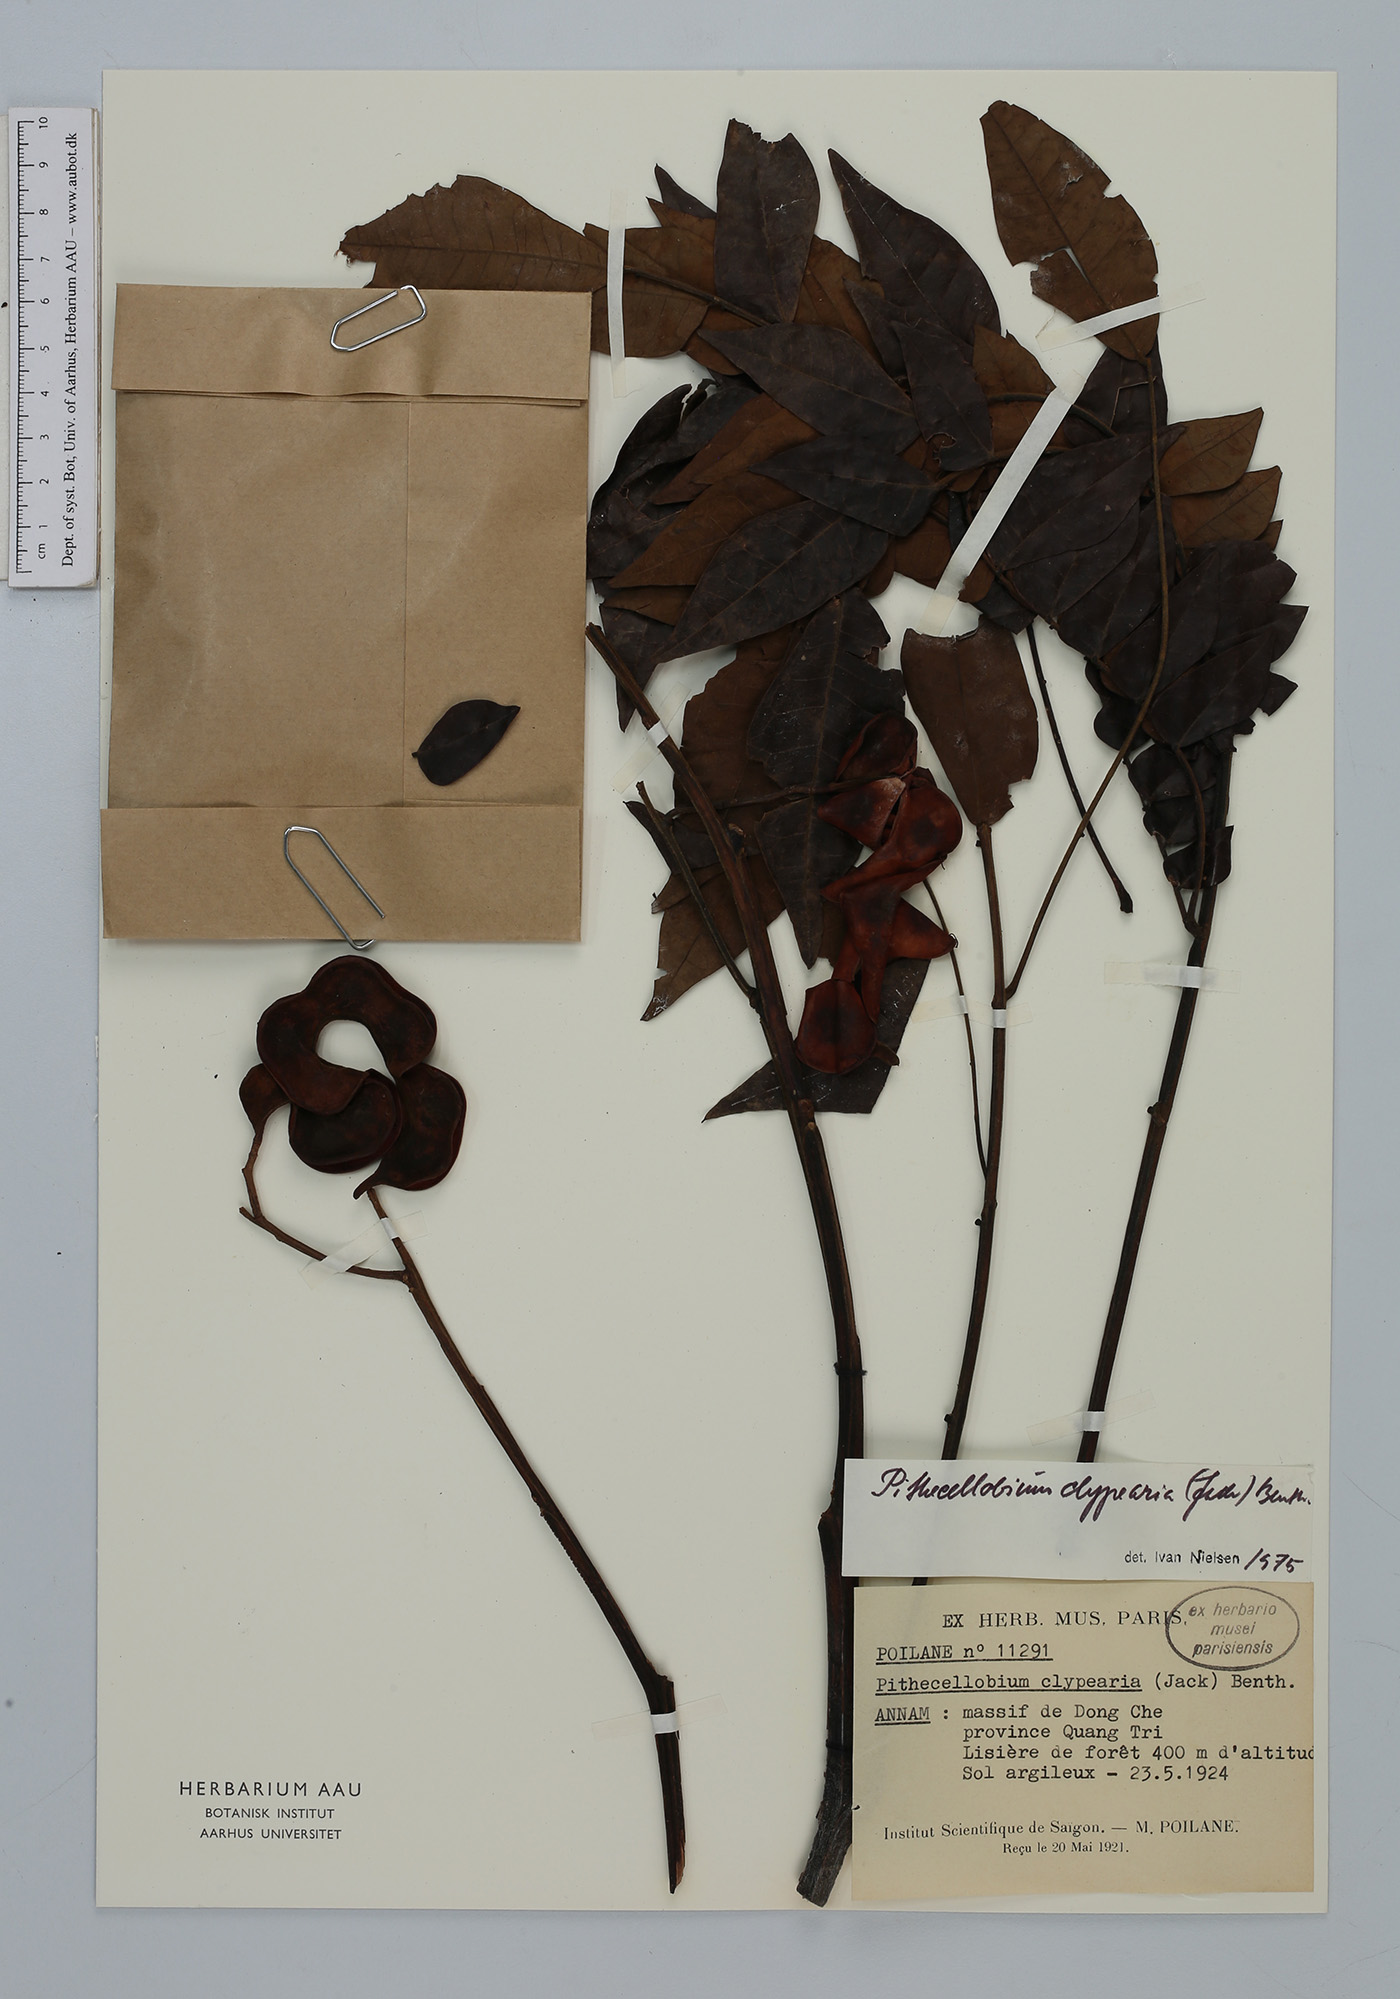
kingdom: Plantae
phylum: Tracheophyta
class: Magnoliopsida
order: Fabales
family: Fabaceae
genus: Archidendron
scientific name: Archidendron clypearia
